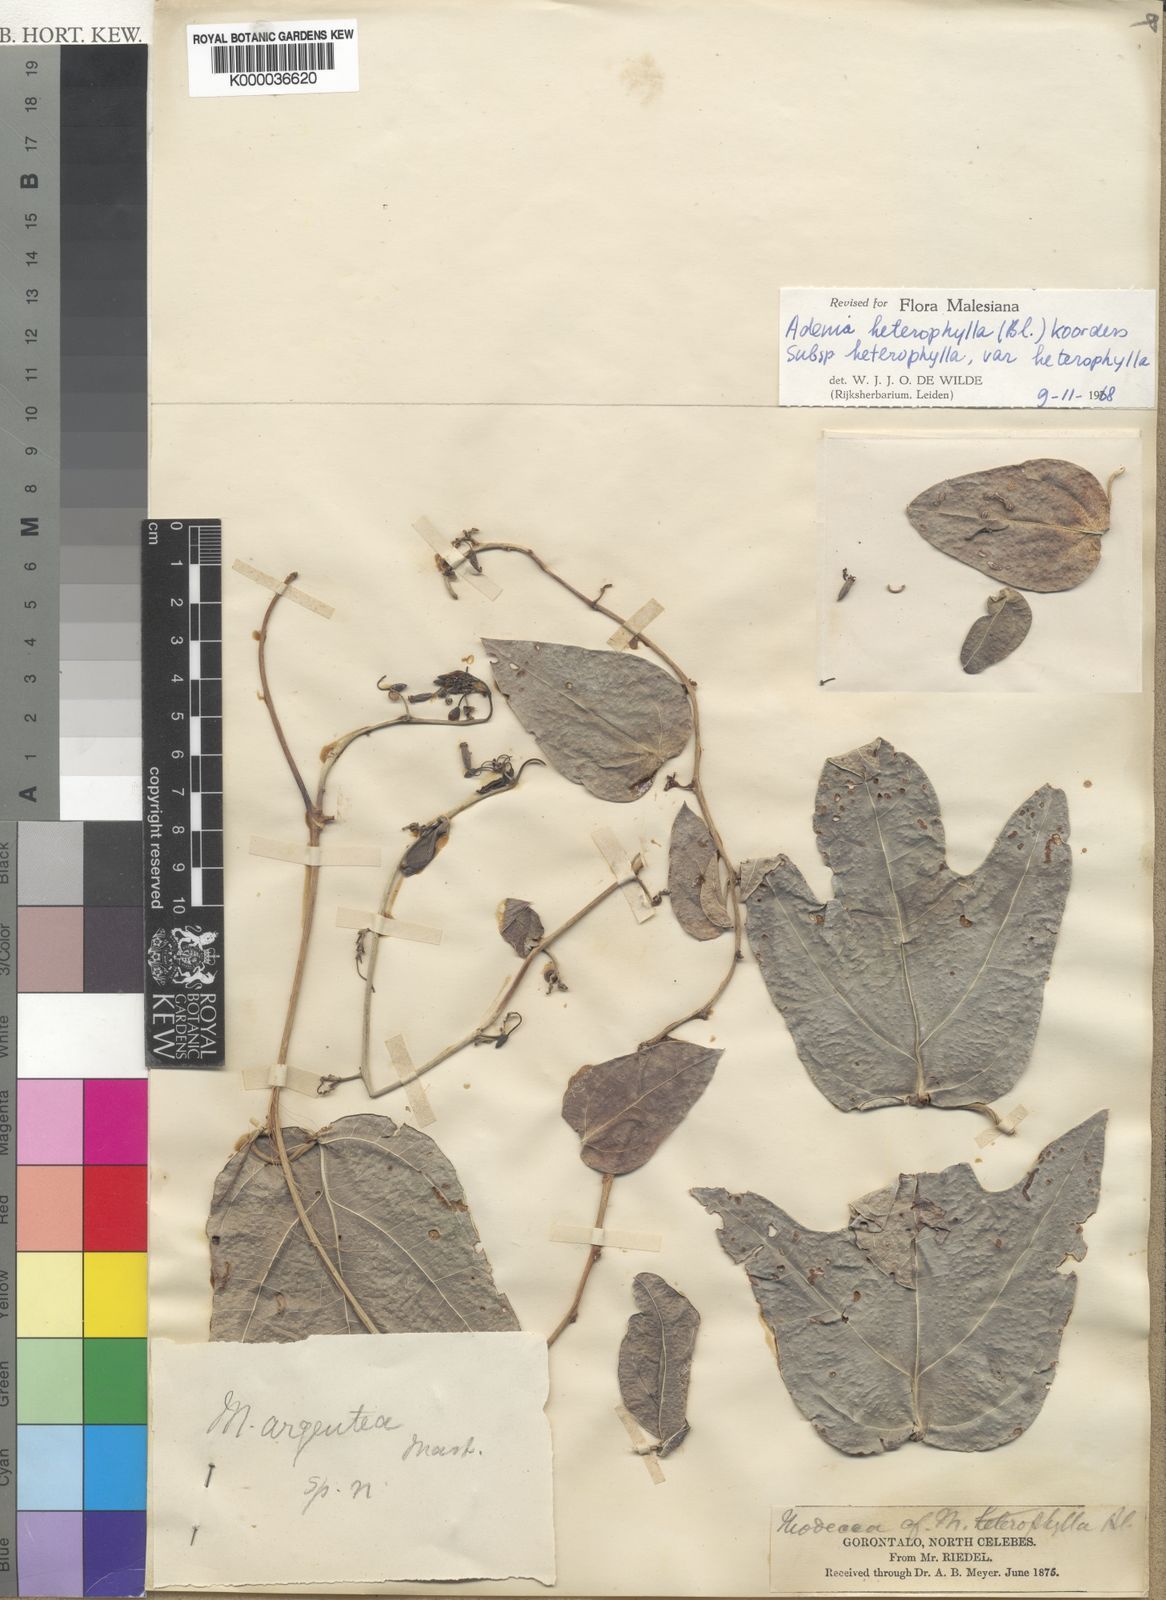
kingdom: Plantae
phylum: Tracheophyta
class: Magnoliopsida
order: Malpighiales
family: Passifloraceae
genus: Adenia
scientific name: Adenia heterophylla
